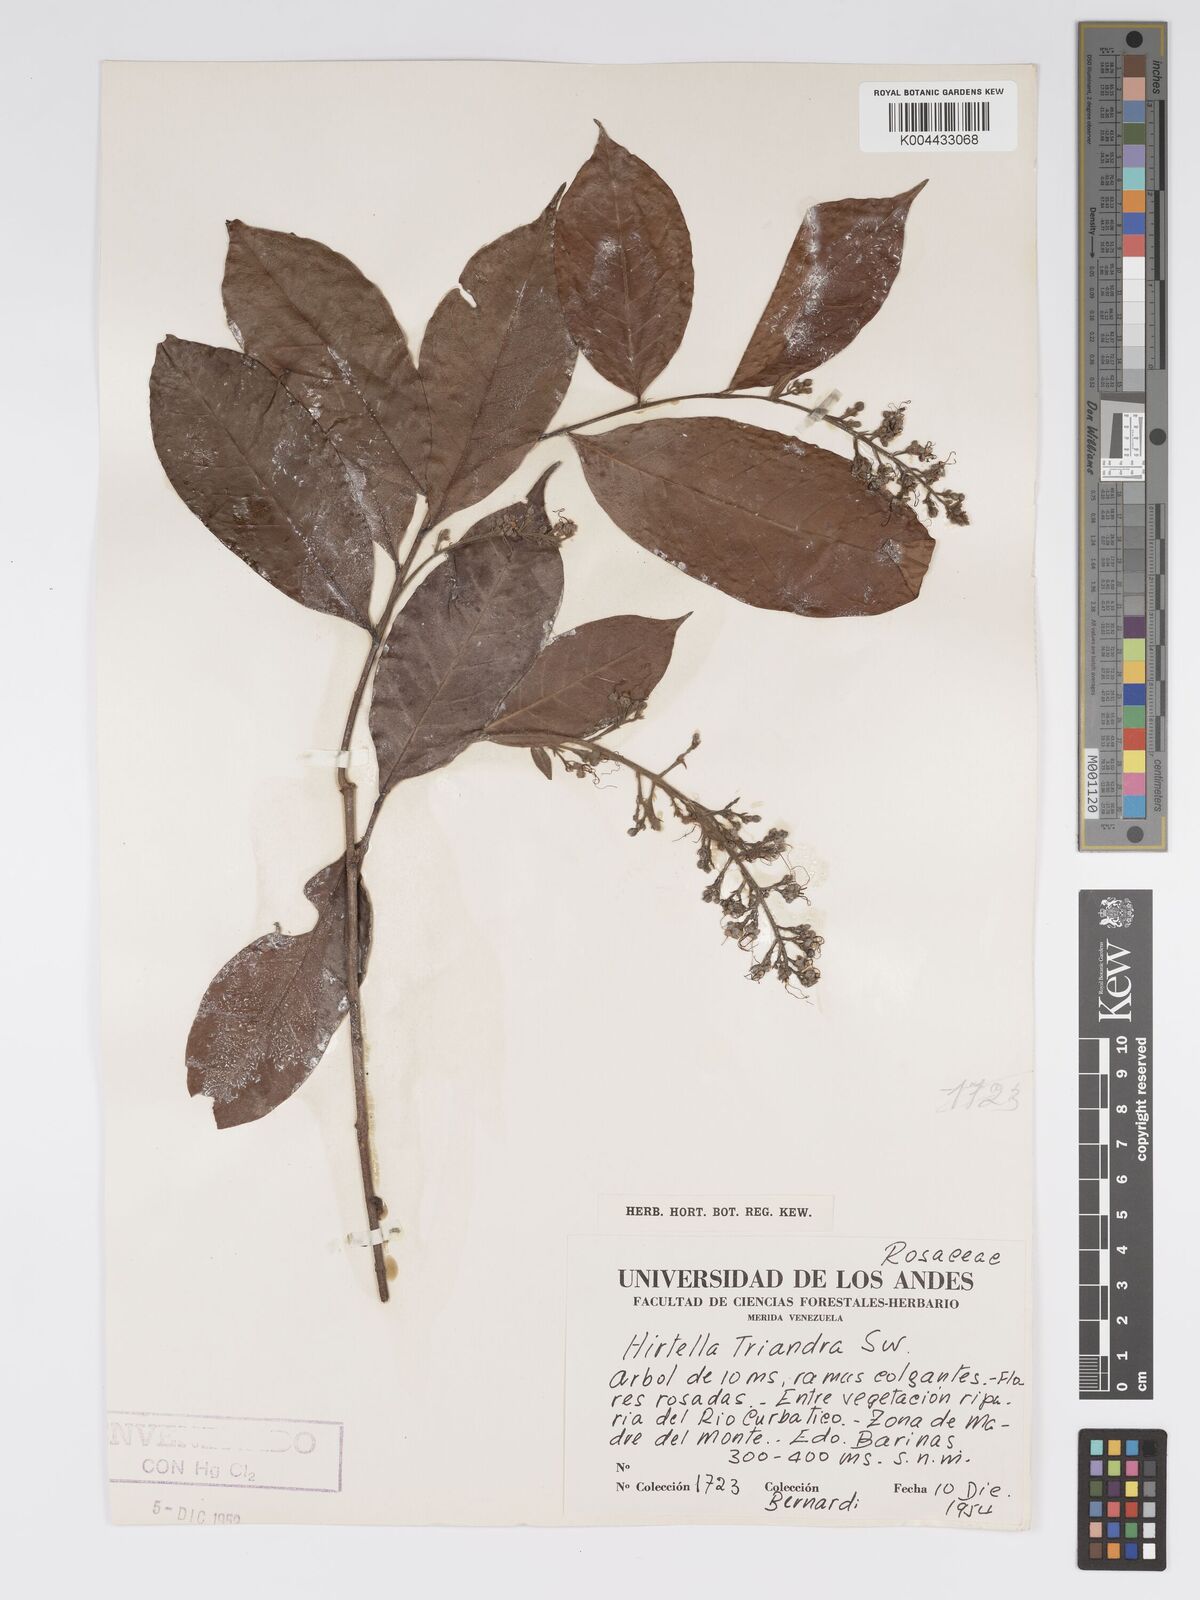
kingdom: Plantae
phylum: Tracheophyta
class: Magnoliopsida
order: Malpighiales
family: Chrysobalanaceae
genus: Hirtella
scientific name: Hirtella triandra
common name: Hairy plum
